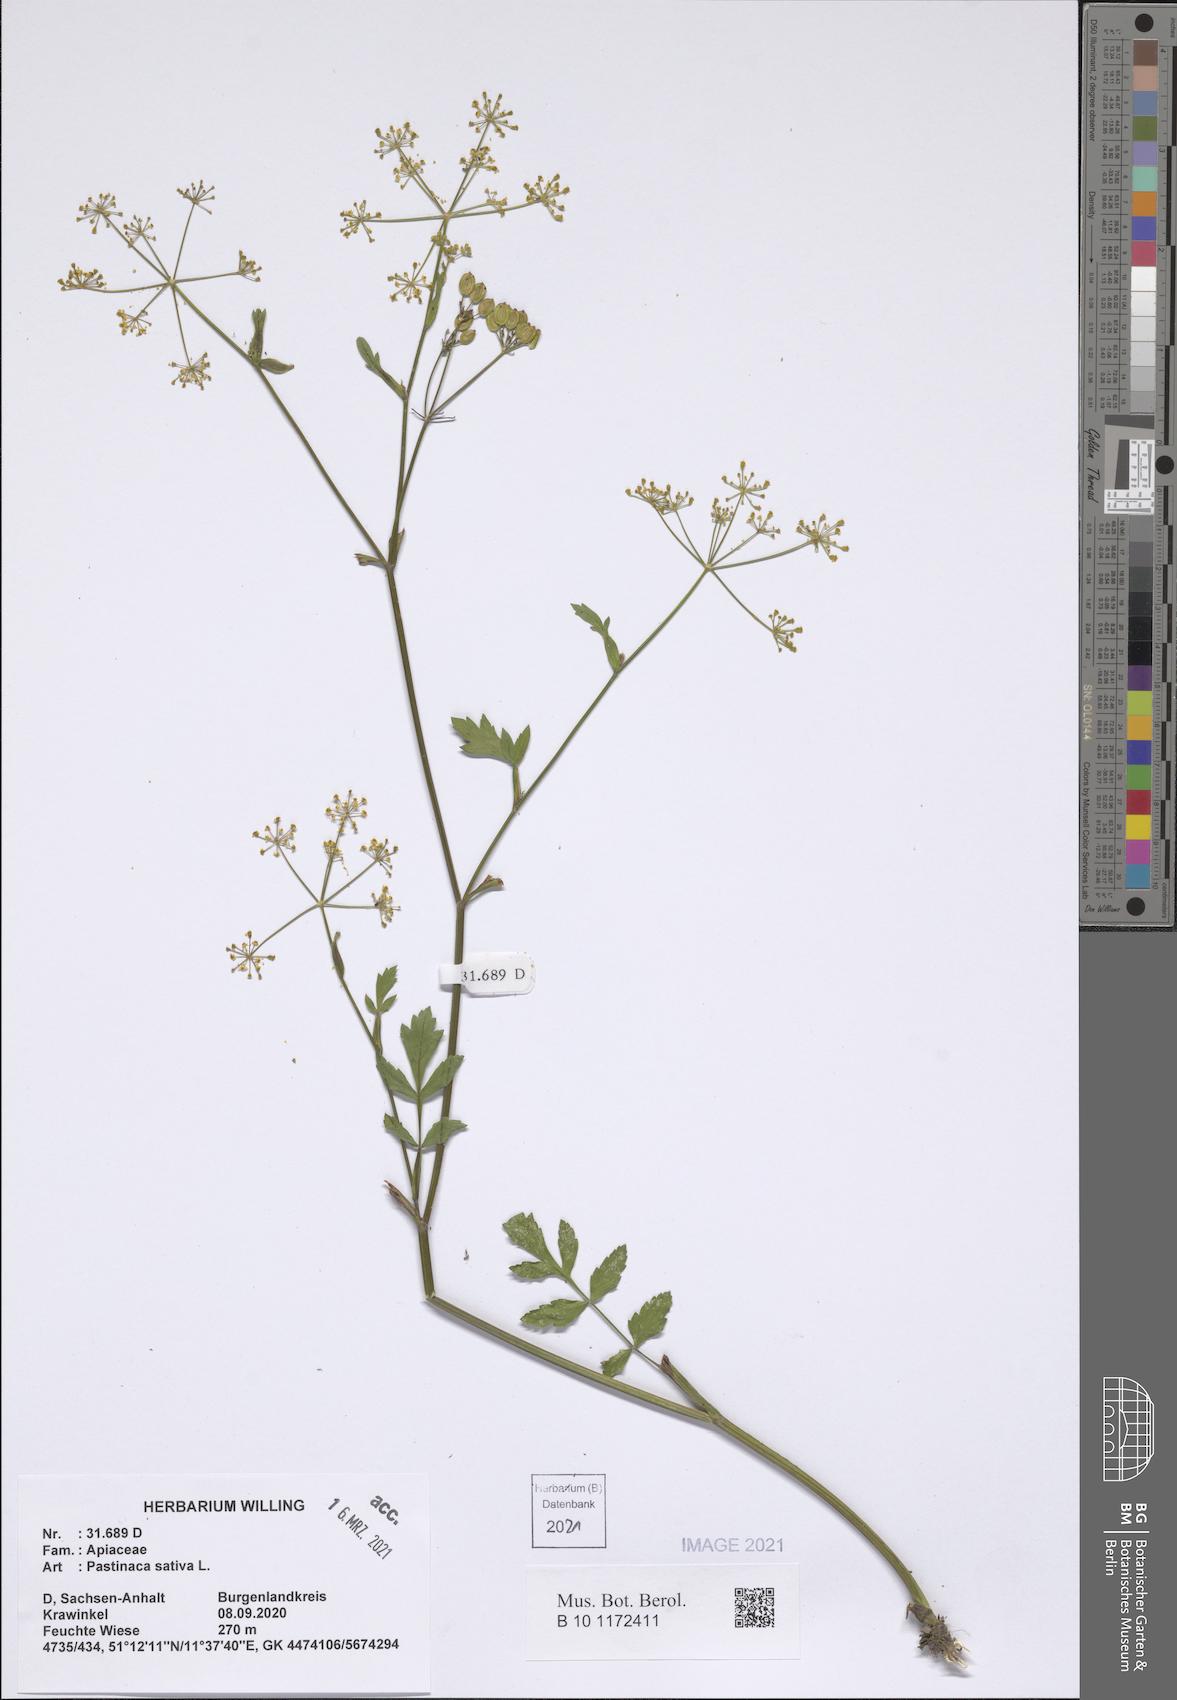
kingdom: Plantae
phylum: Tracheophyta
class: Magnoliopsida
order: Apiales
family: Apiaceae
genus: Pastinaca
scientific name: Pastinaca sativa
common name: Wild parsnip
